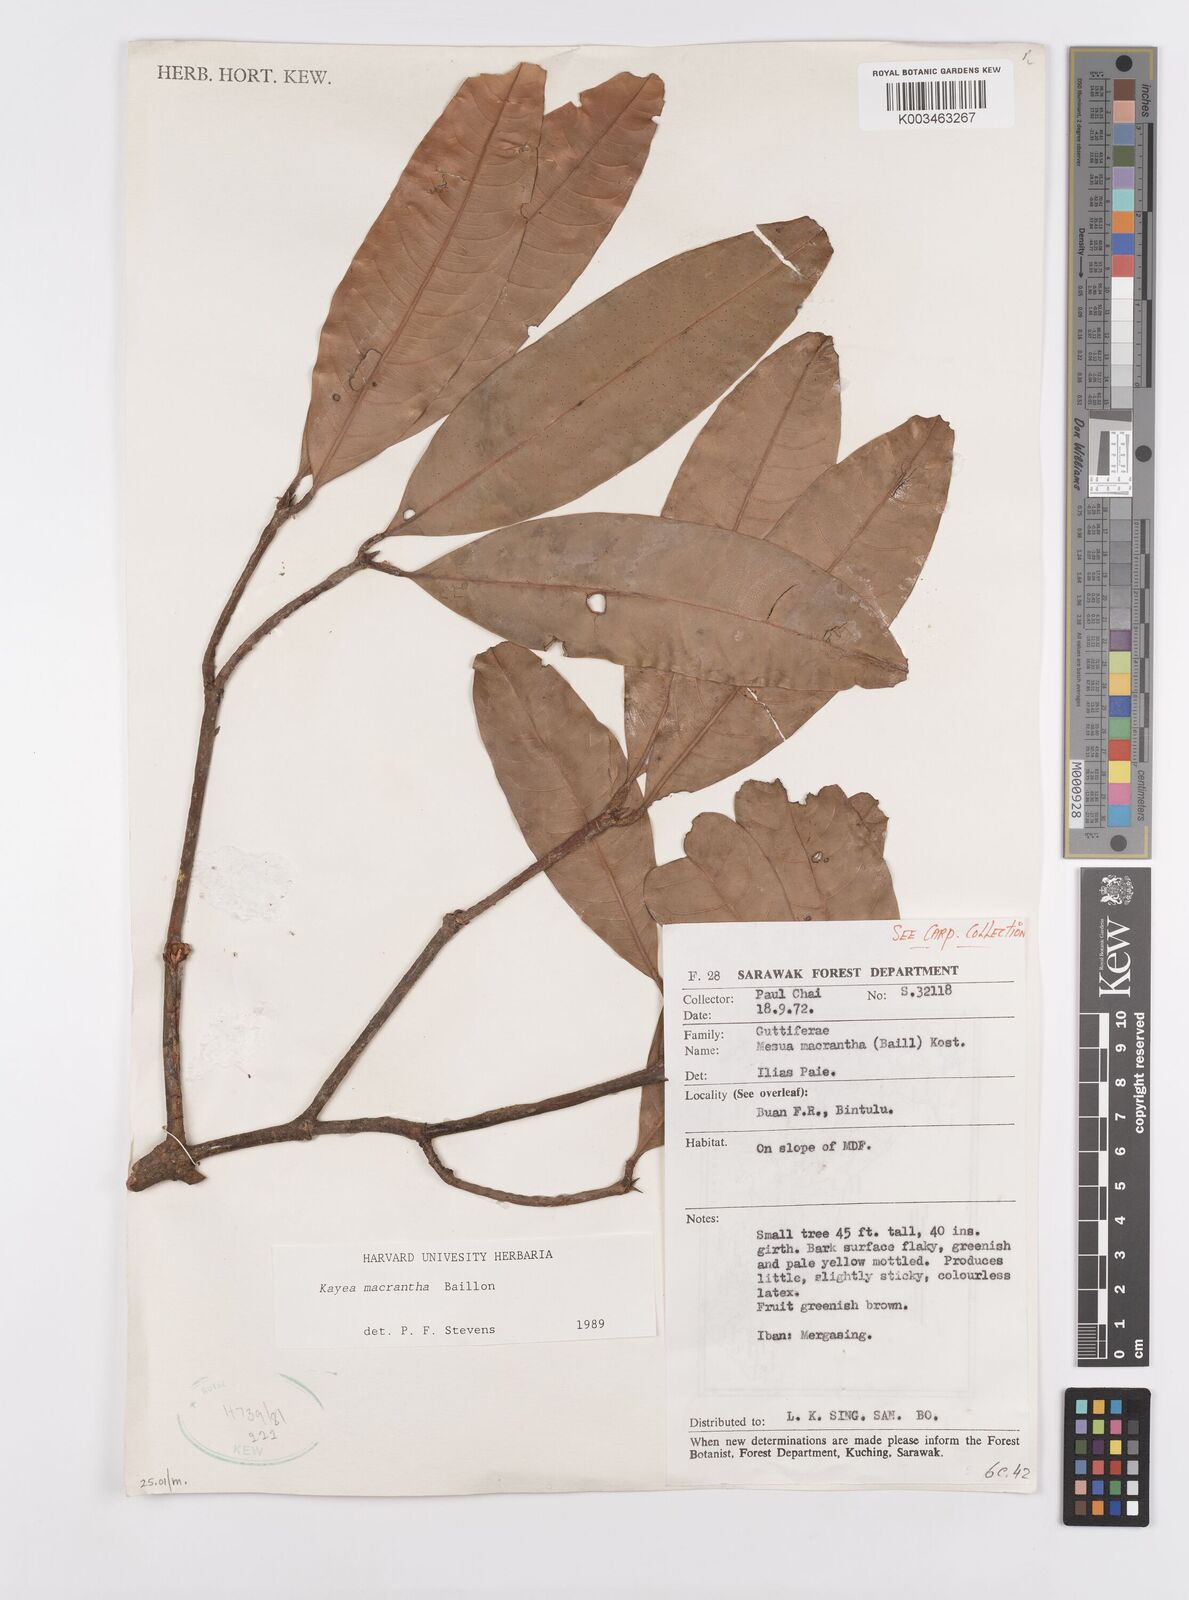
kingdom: Plantae
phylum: Tracheophyta
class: Magnoliopsida
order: Malpighiales
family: Calophyllaceae
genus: Kayea
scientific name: Kayea macrantha
